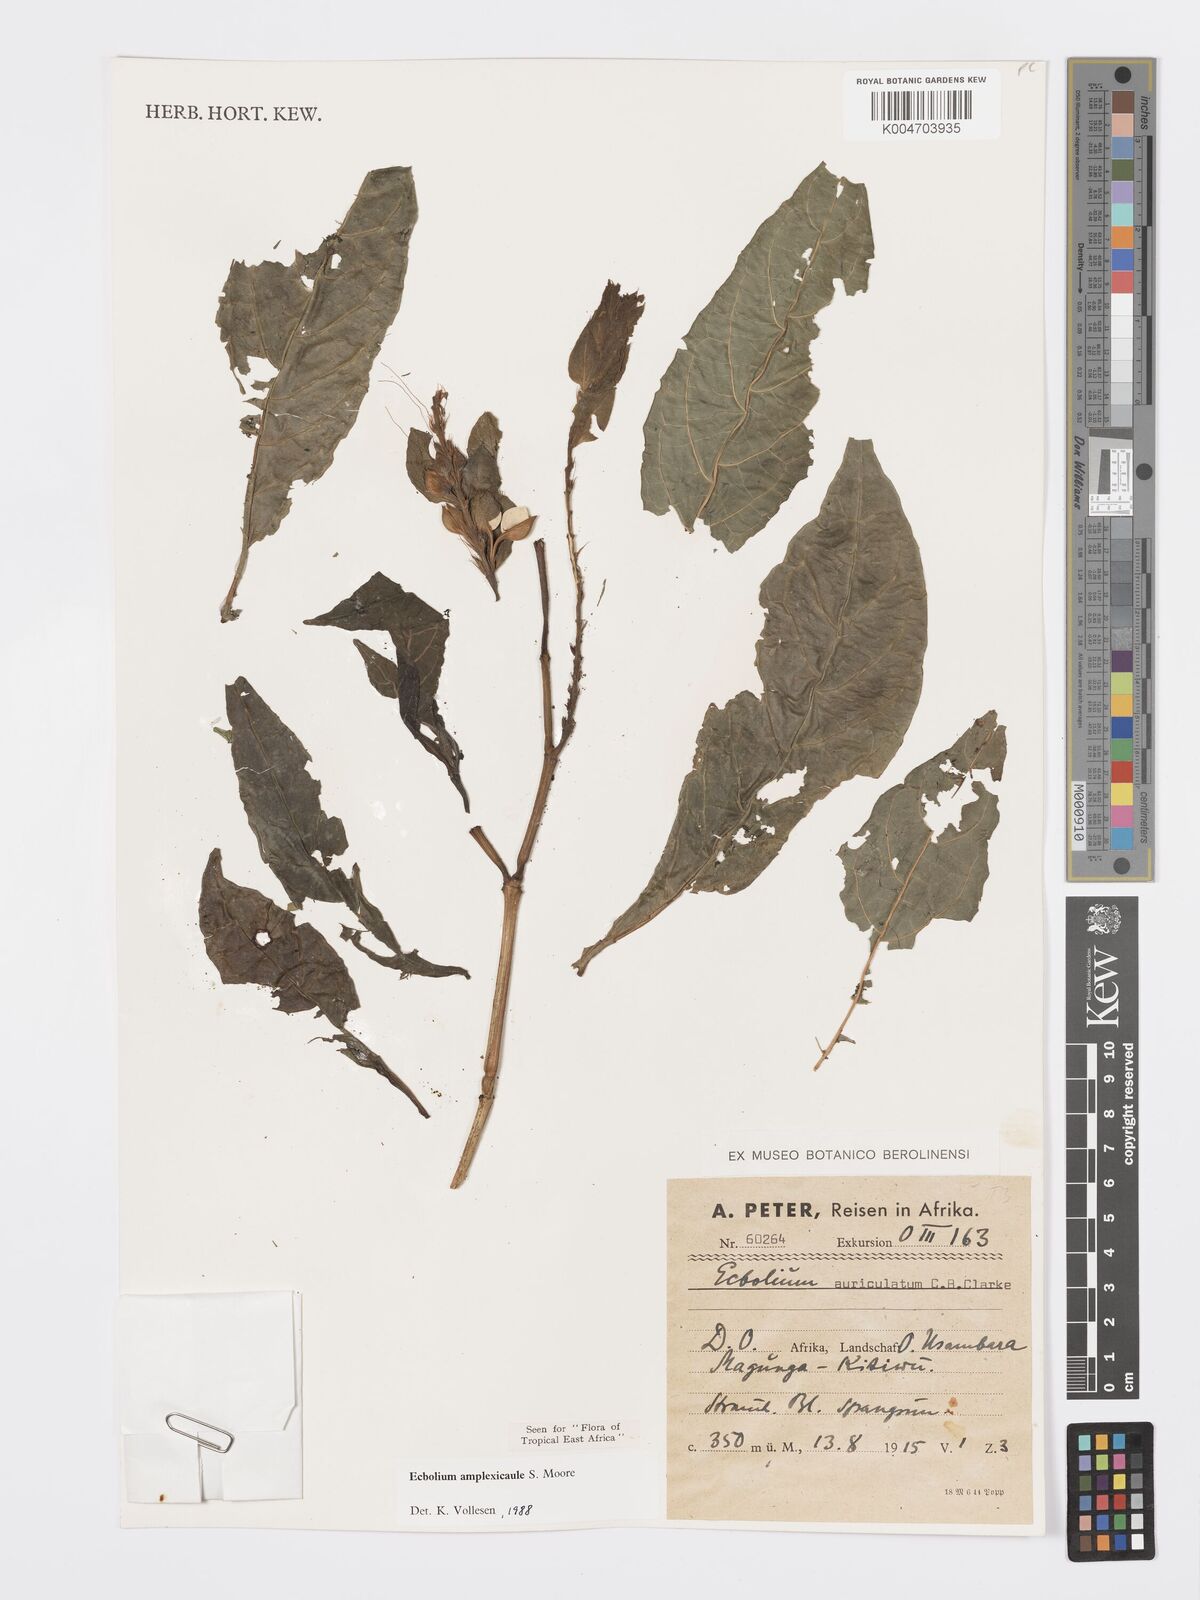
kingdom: Plantae
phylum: Tracheophyta
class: Magnoliopsida
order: Lamiales
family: Acanthaceae
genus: Ecbolium
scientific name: Ecbolium amplexicaule
